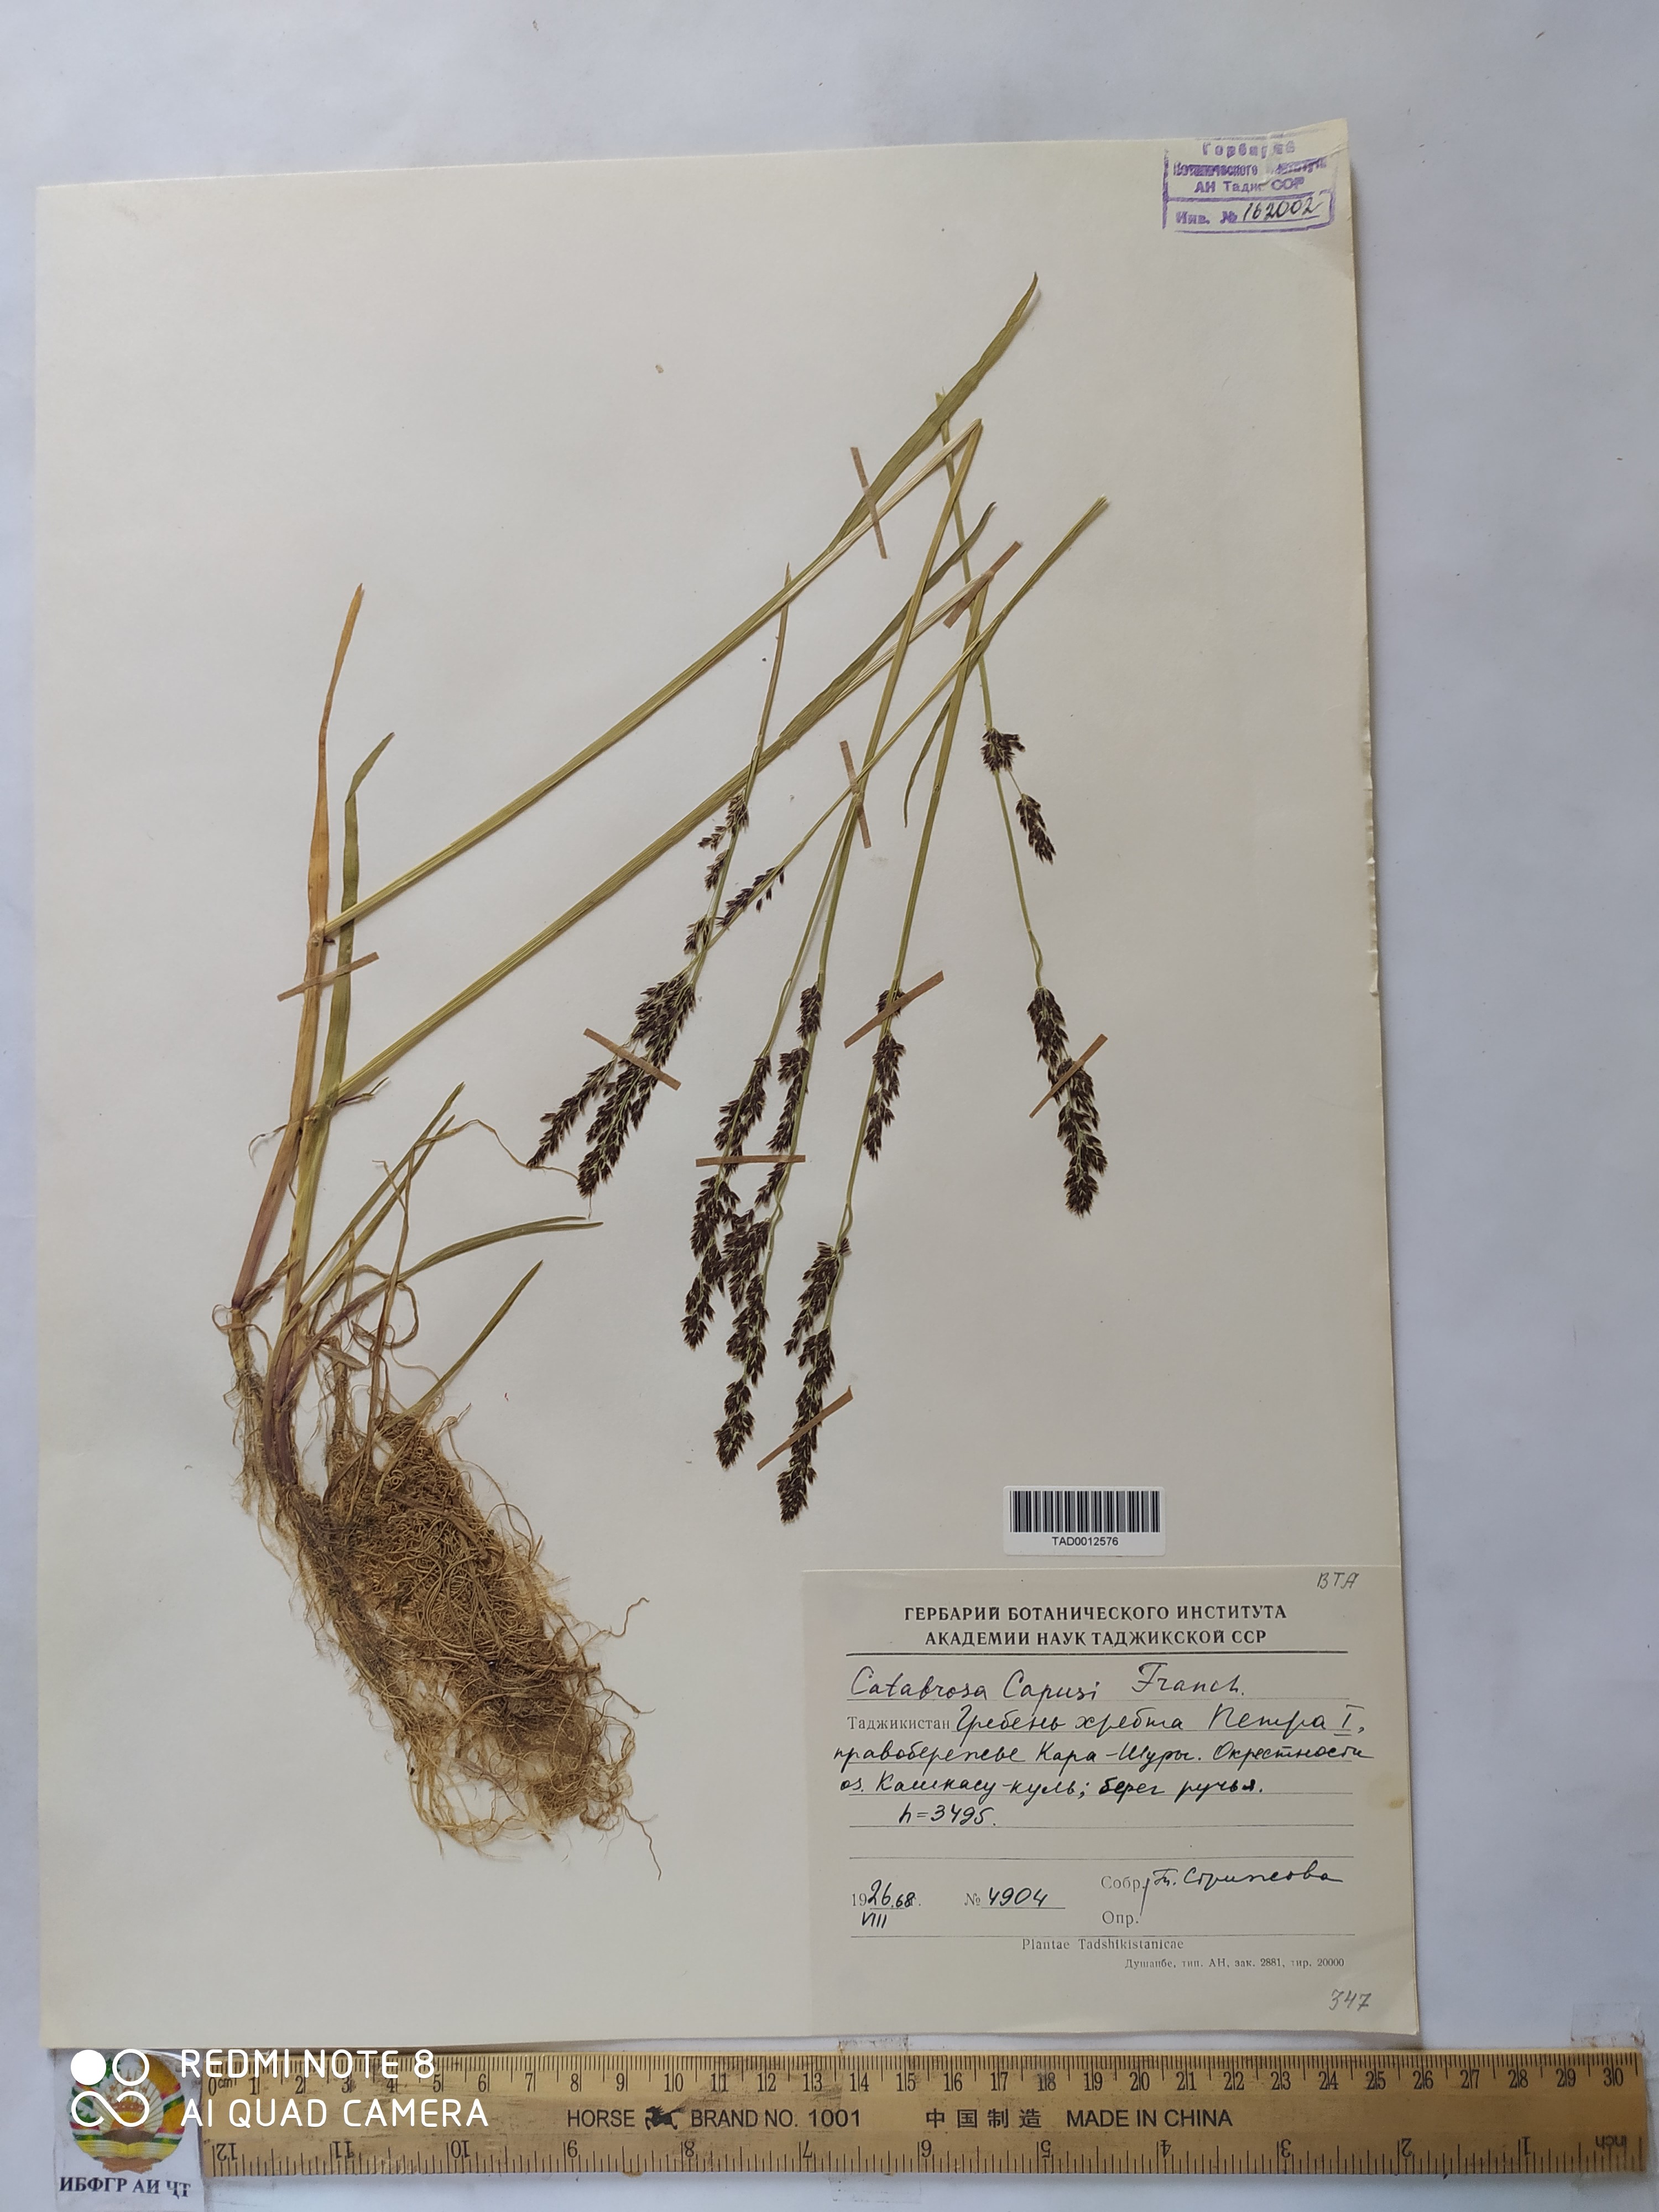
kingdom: Plantae
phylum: Tracheophyta
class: Liliopsida
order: Poales
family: Poaceae
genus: Catabrosa
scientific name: Catabrosa aquatica
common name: Whorl-grass
